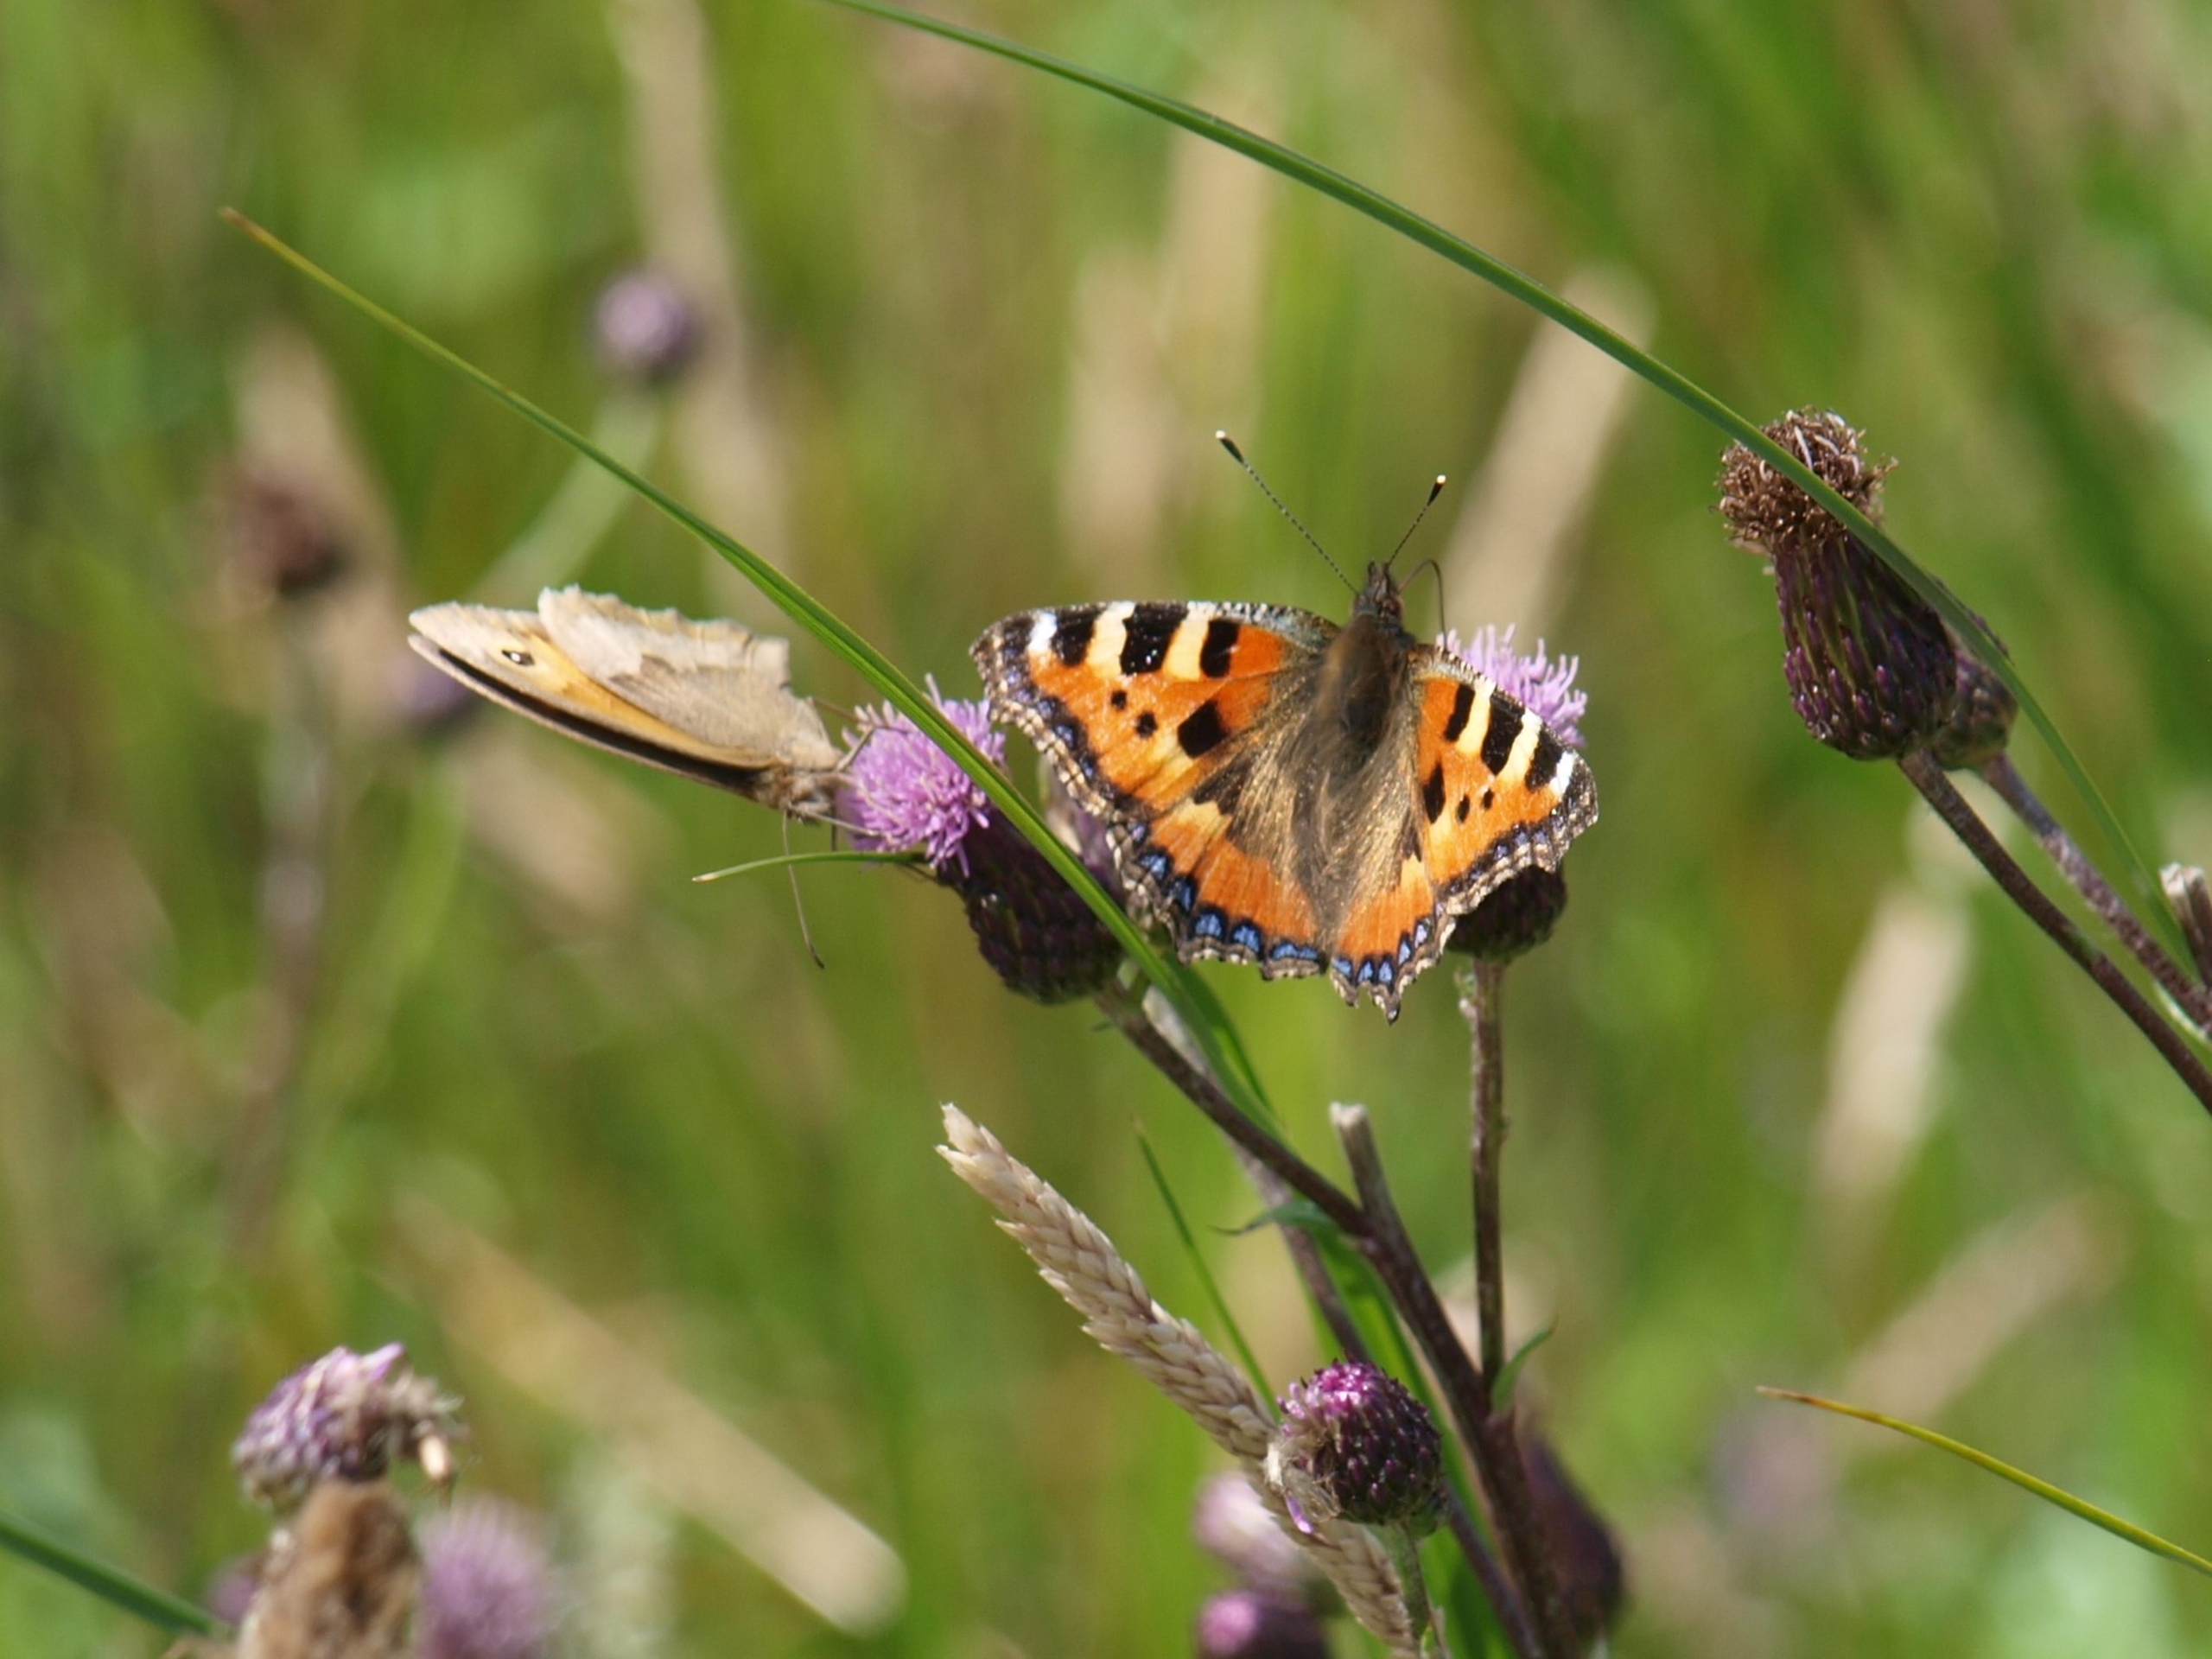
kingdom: Animalia
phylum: Arthropoda
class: Insecta
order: Lepidoptera
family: Nymphalidae
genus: Aglais
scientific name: Aglais urticae
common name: Nældens takvinge
